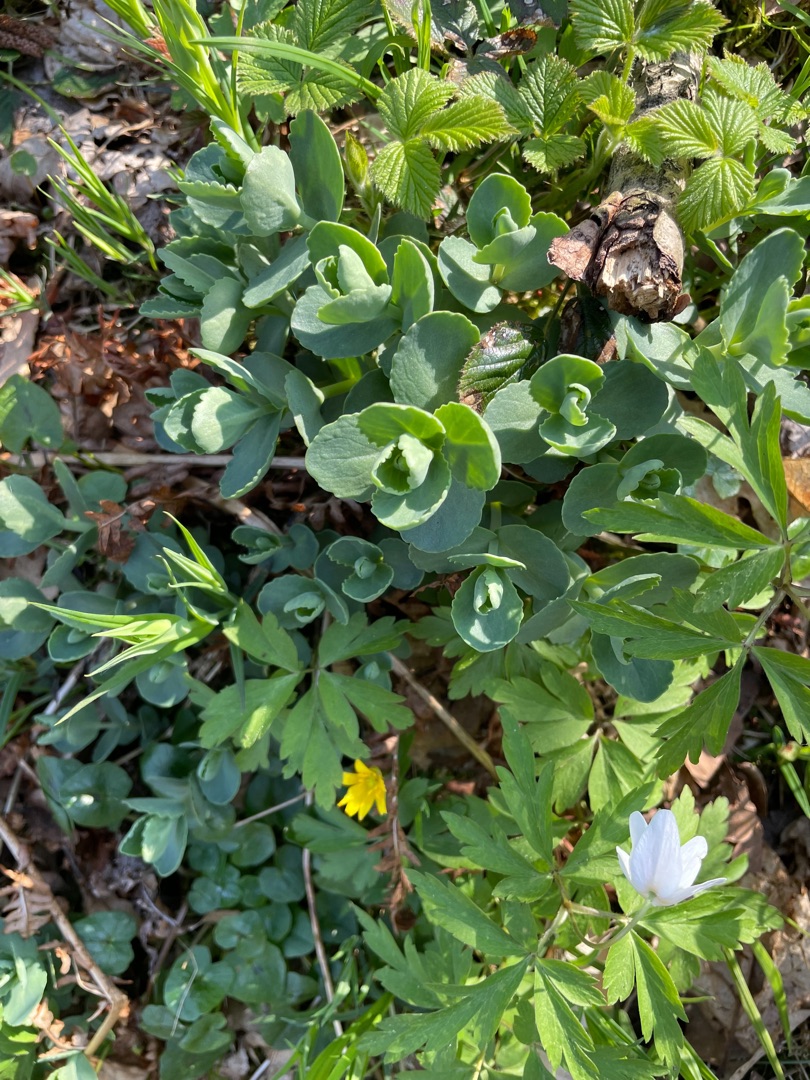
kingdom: Plantae
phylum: Tracheophyta
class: Magnoliopsida
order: Saxifragales
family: Crassulaceae
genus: Hylotelephium
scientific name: Hylotelephium telephium
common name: Sankthansurt
